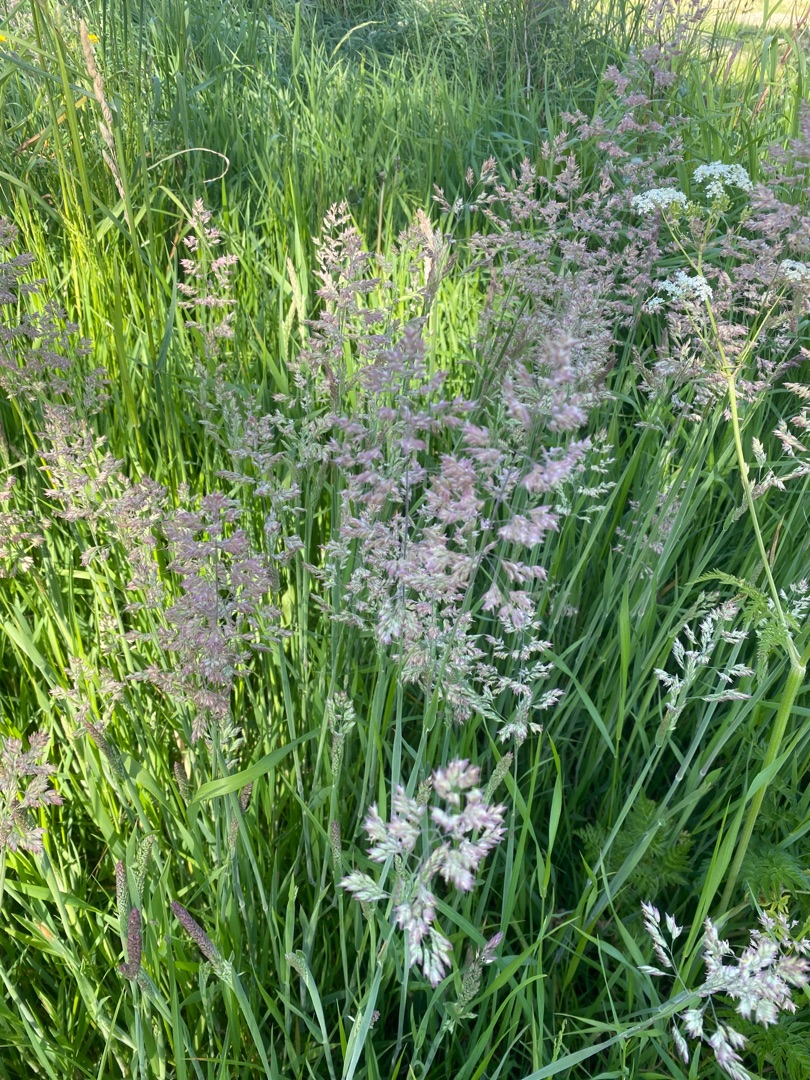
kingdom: Plantae
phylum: Tracheophyta
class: Liliopsida
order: Poales
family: Poaceae
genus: Holcus
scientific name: Holcus lanatus
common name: Fløjlsgræs
